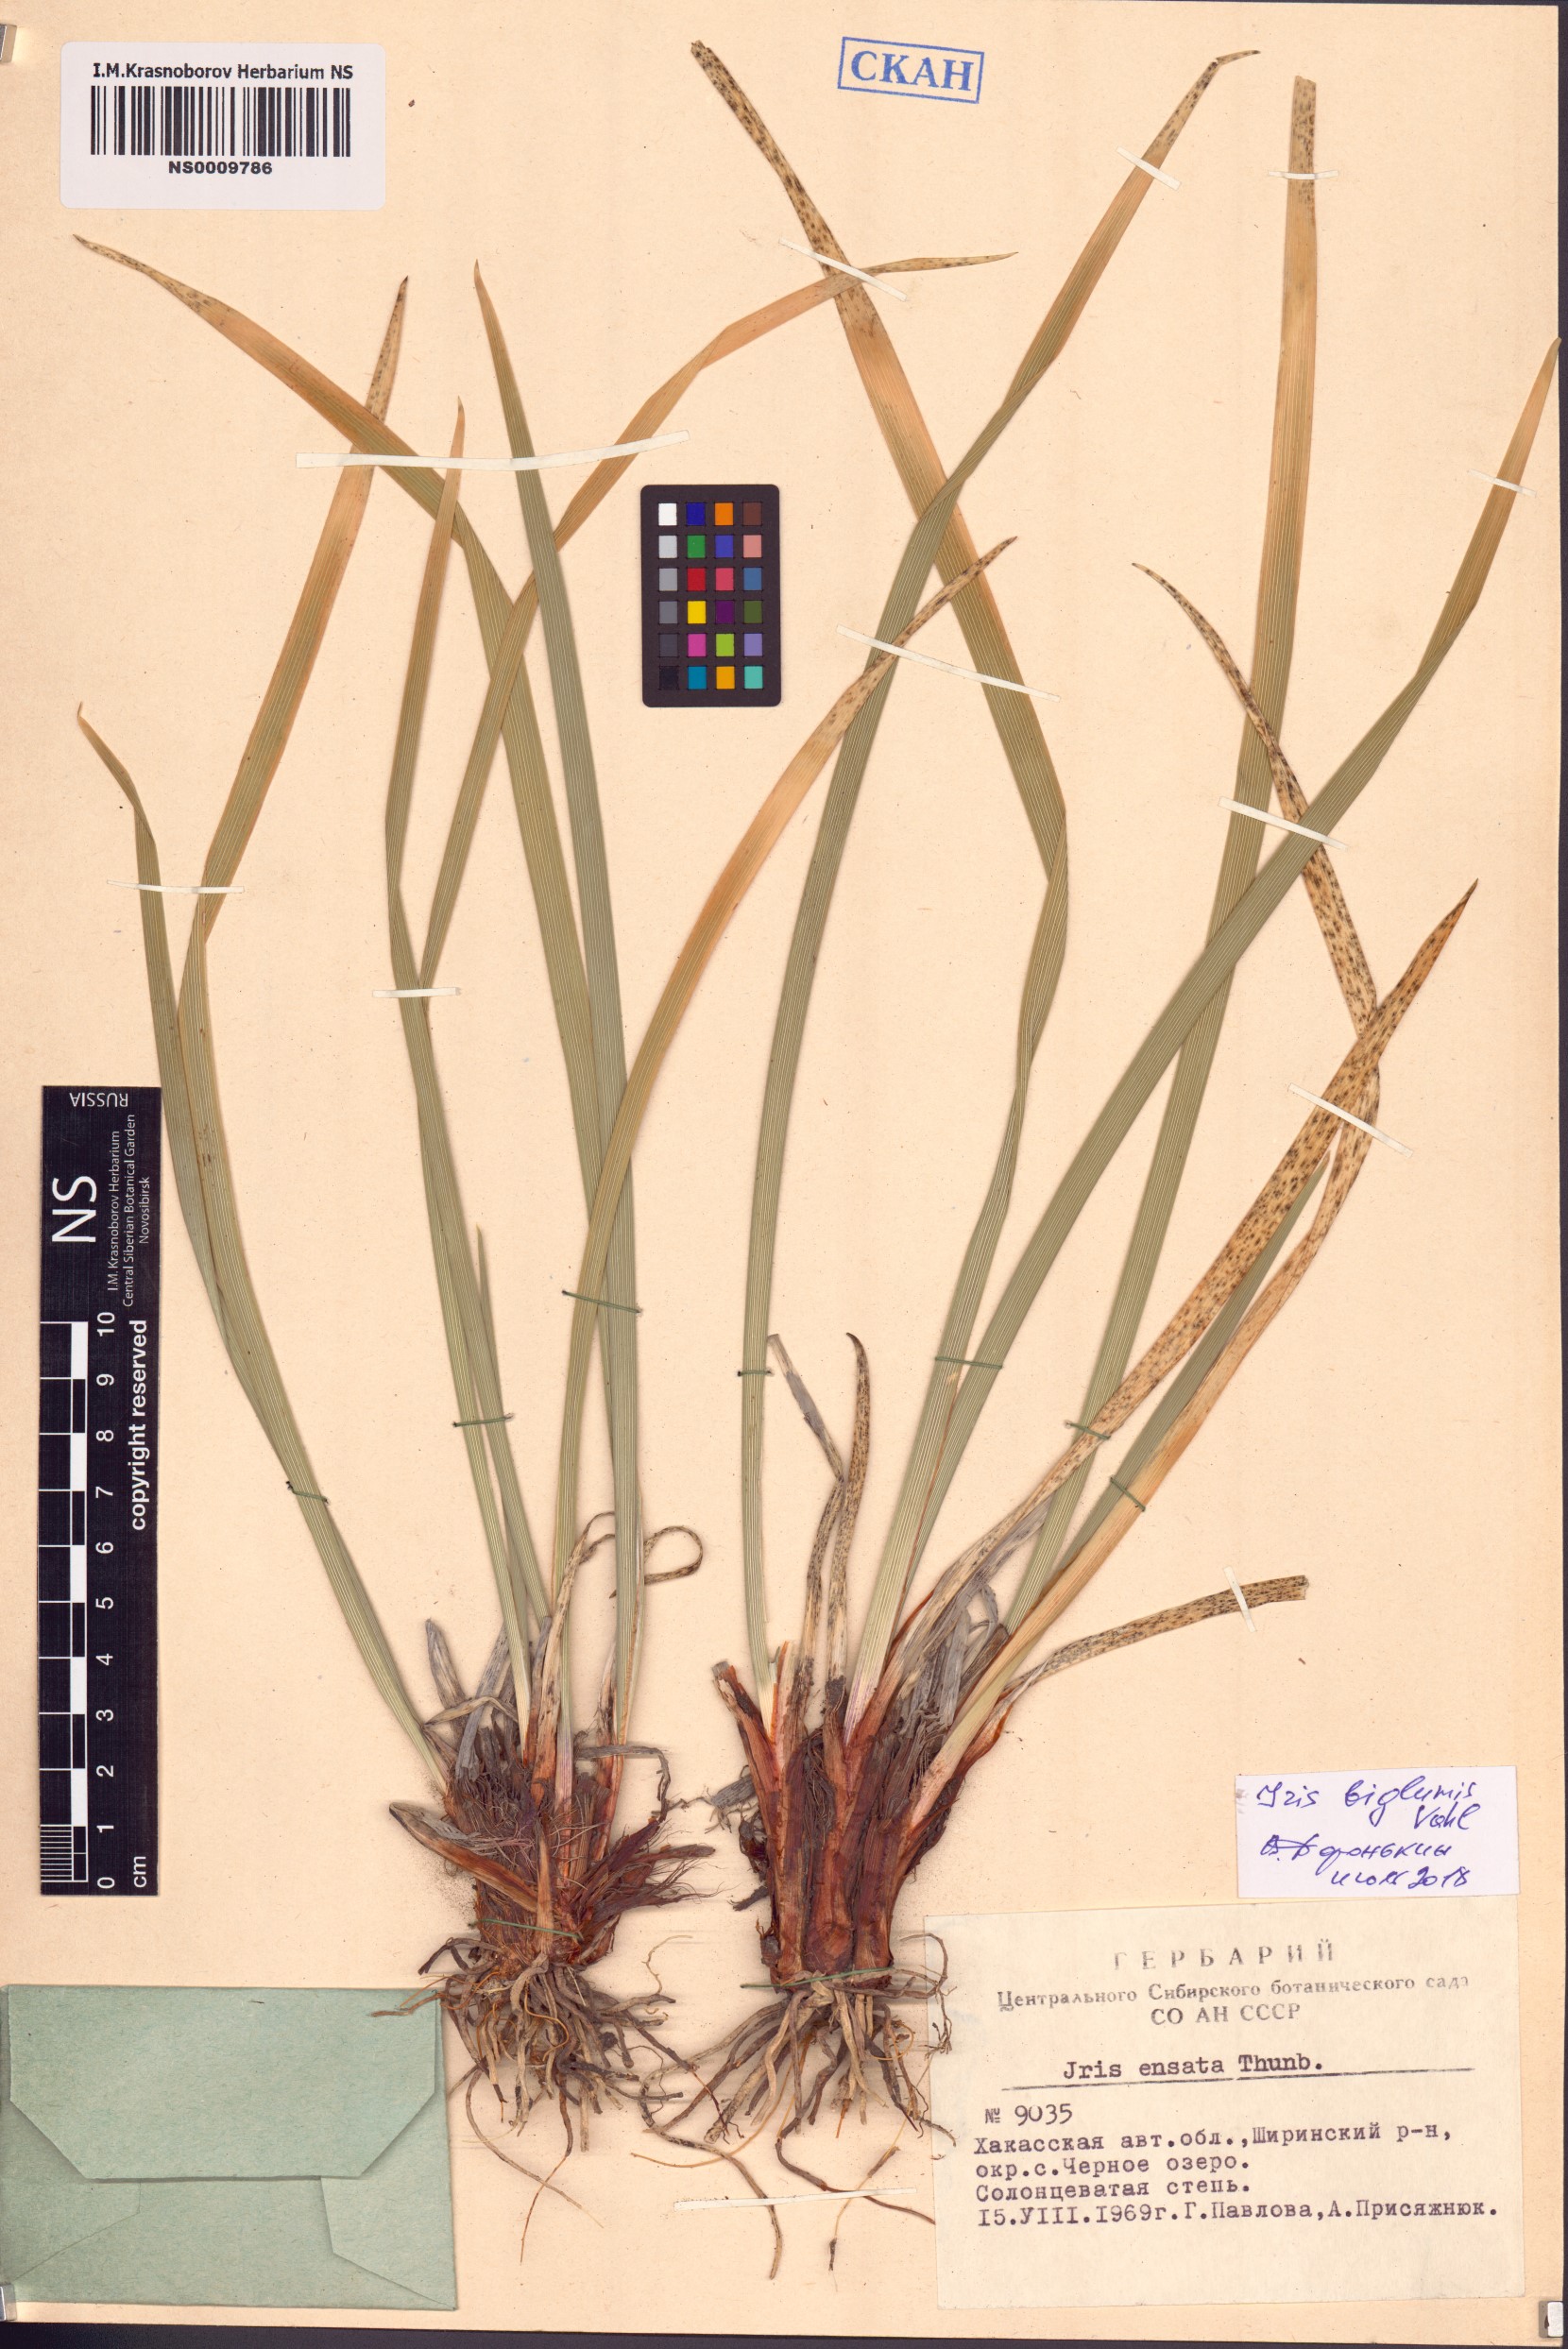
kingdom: Plantae
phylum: Tracheophyta
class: Liliopsida
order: Asparagales
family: Iridaceae
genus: Iris
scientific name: Iris lactea
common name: White-flower chinese iris
